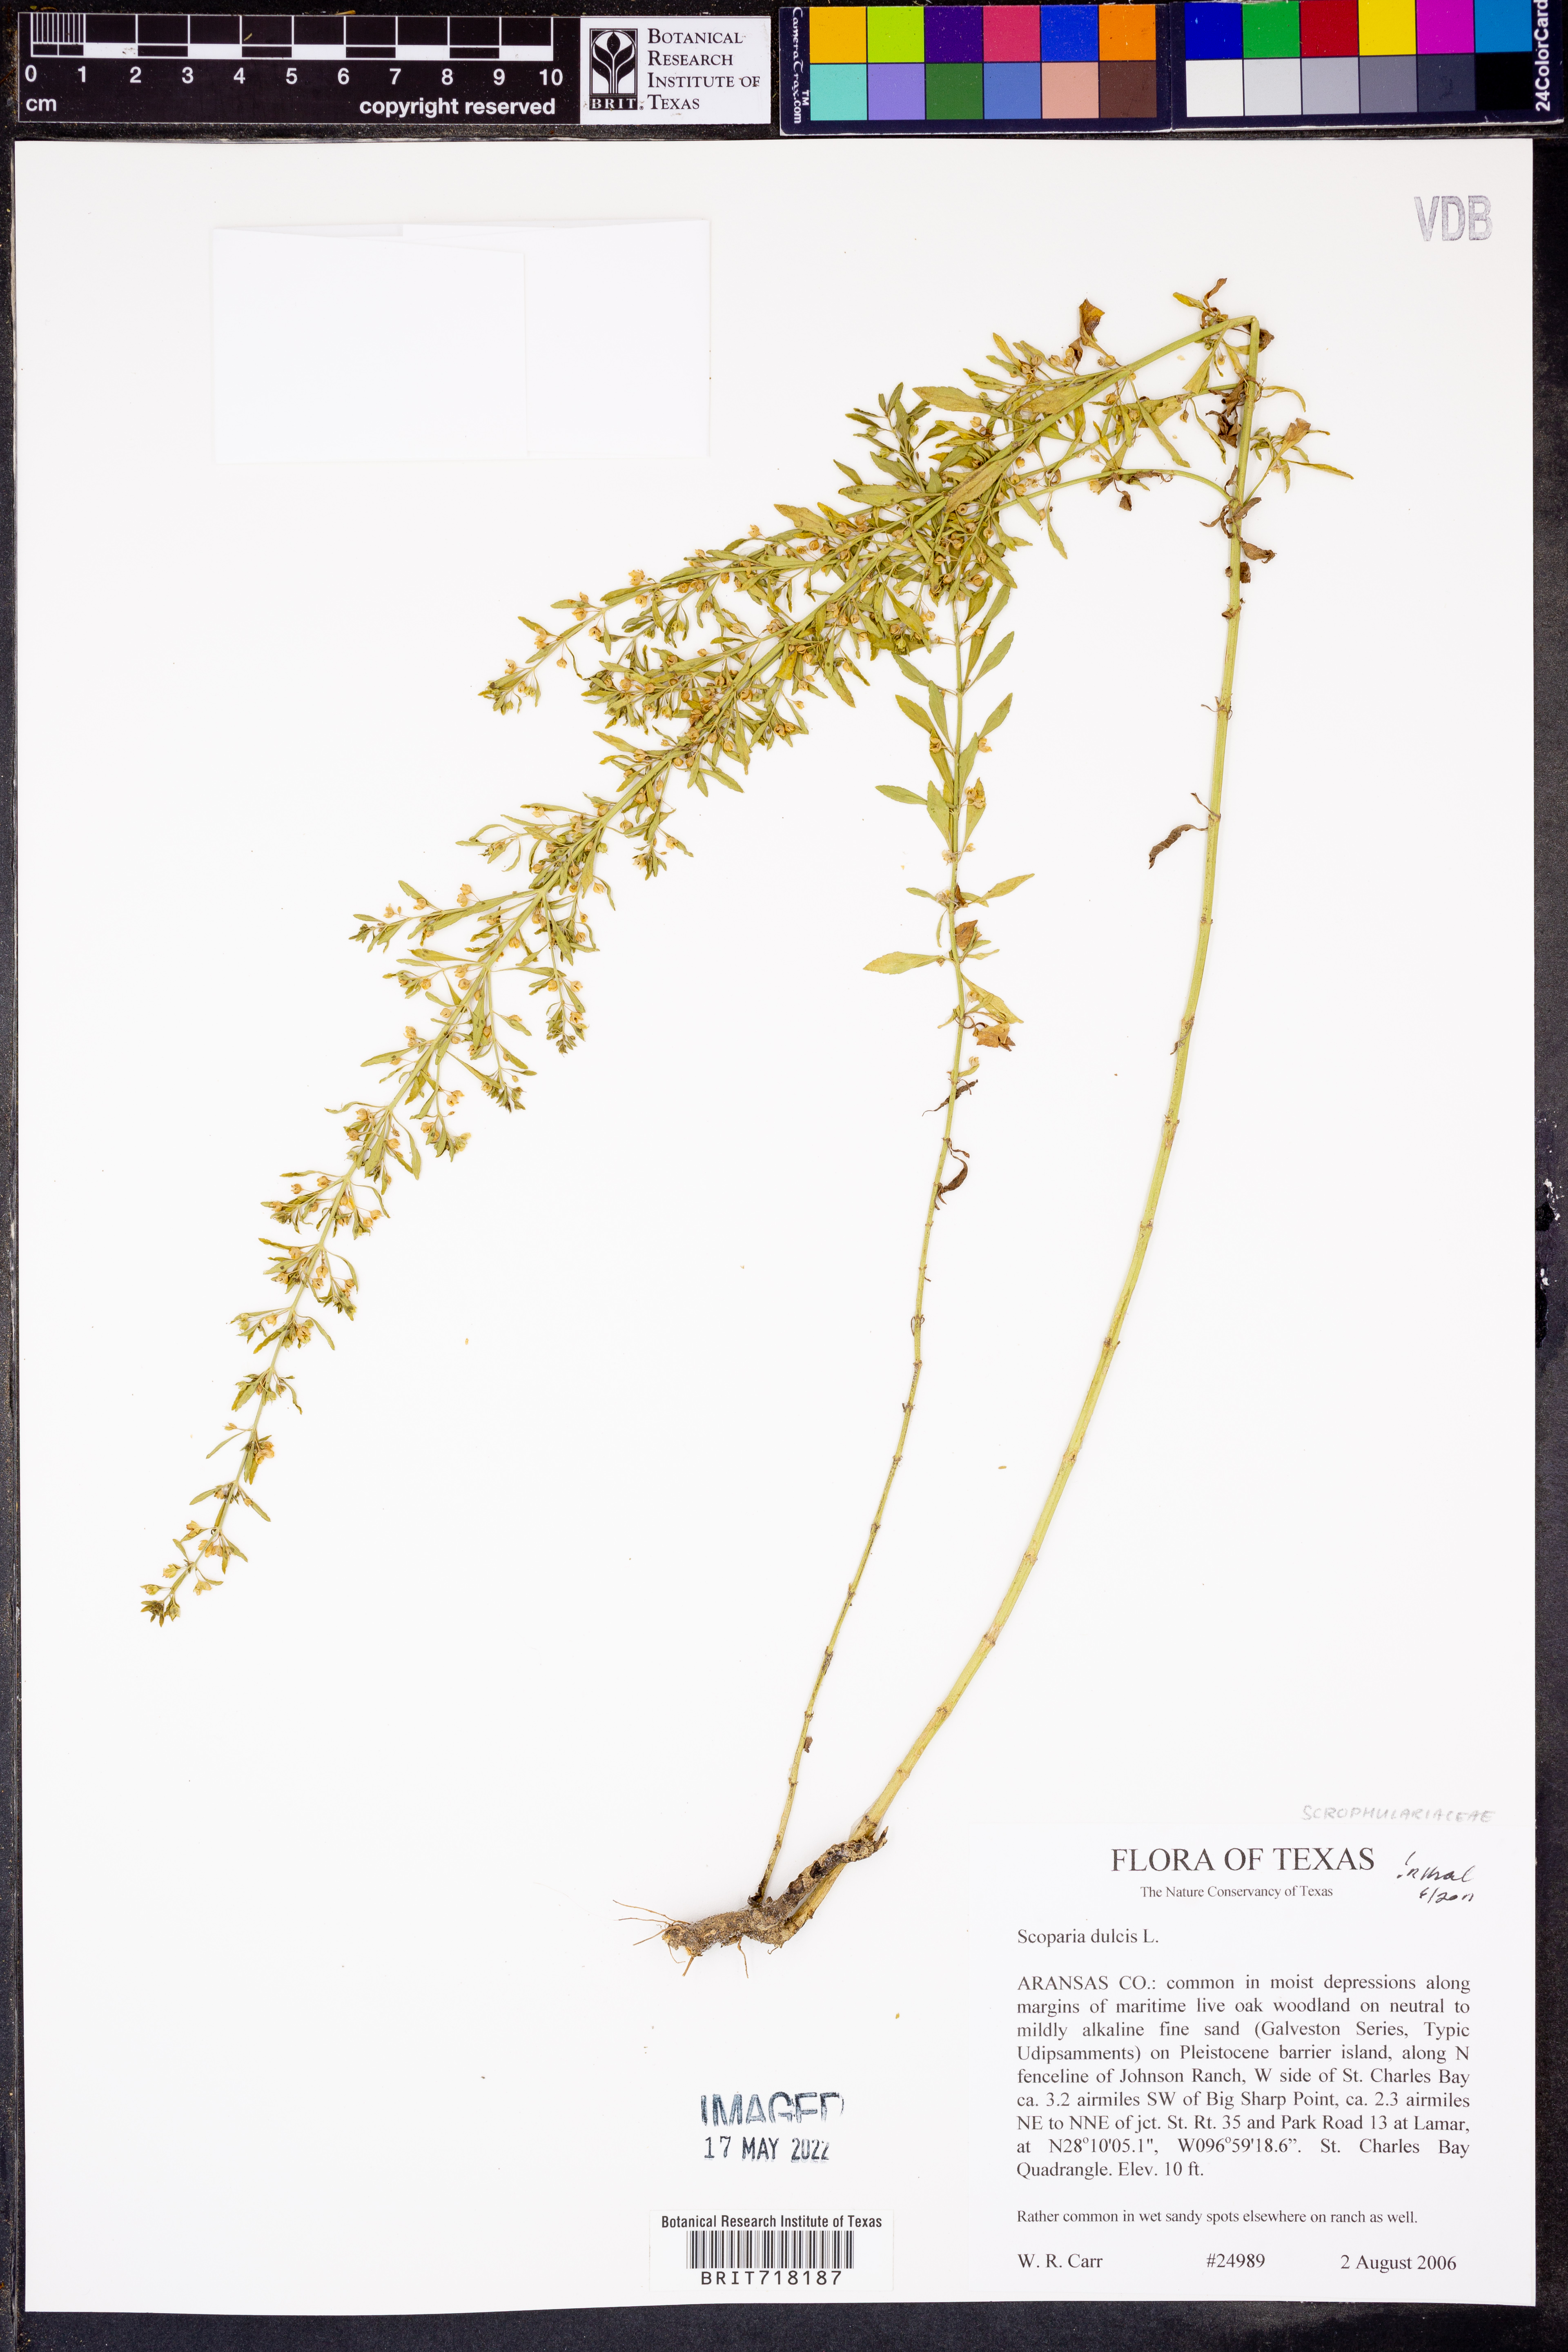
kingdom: Plantae
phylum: Tracheophyta
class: Magnoliopsida
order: Lamiales
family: Plantaginaceae
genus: Scoparia
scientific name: Scoparia dulcis
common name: Scoparia-weed
